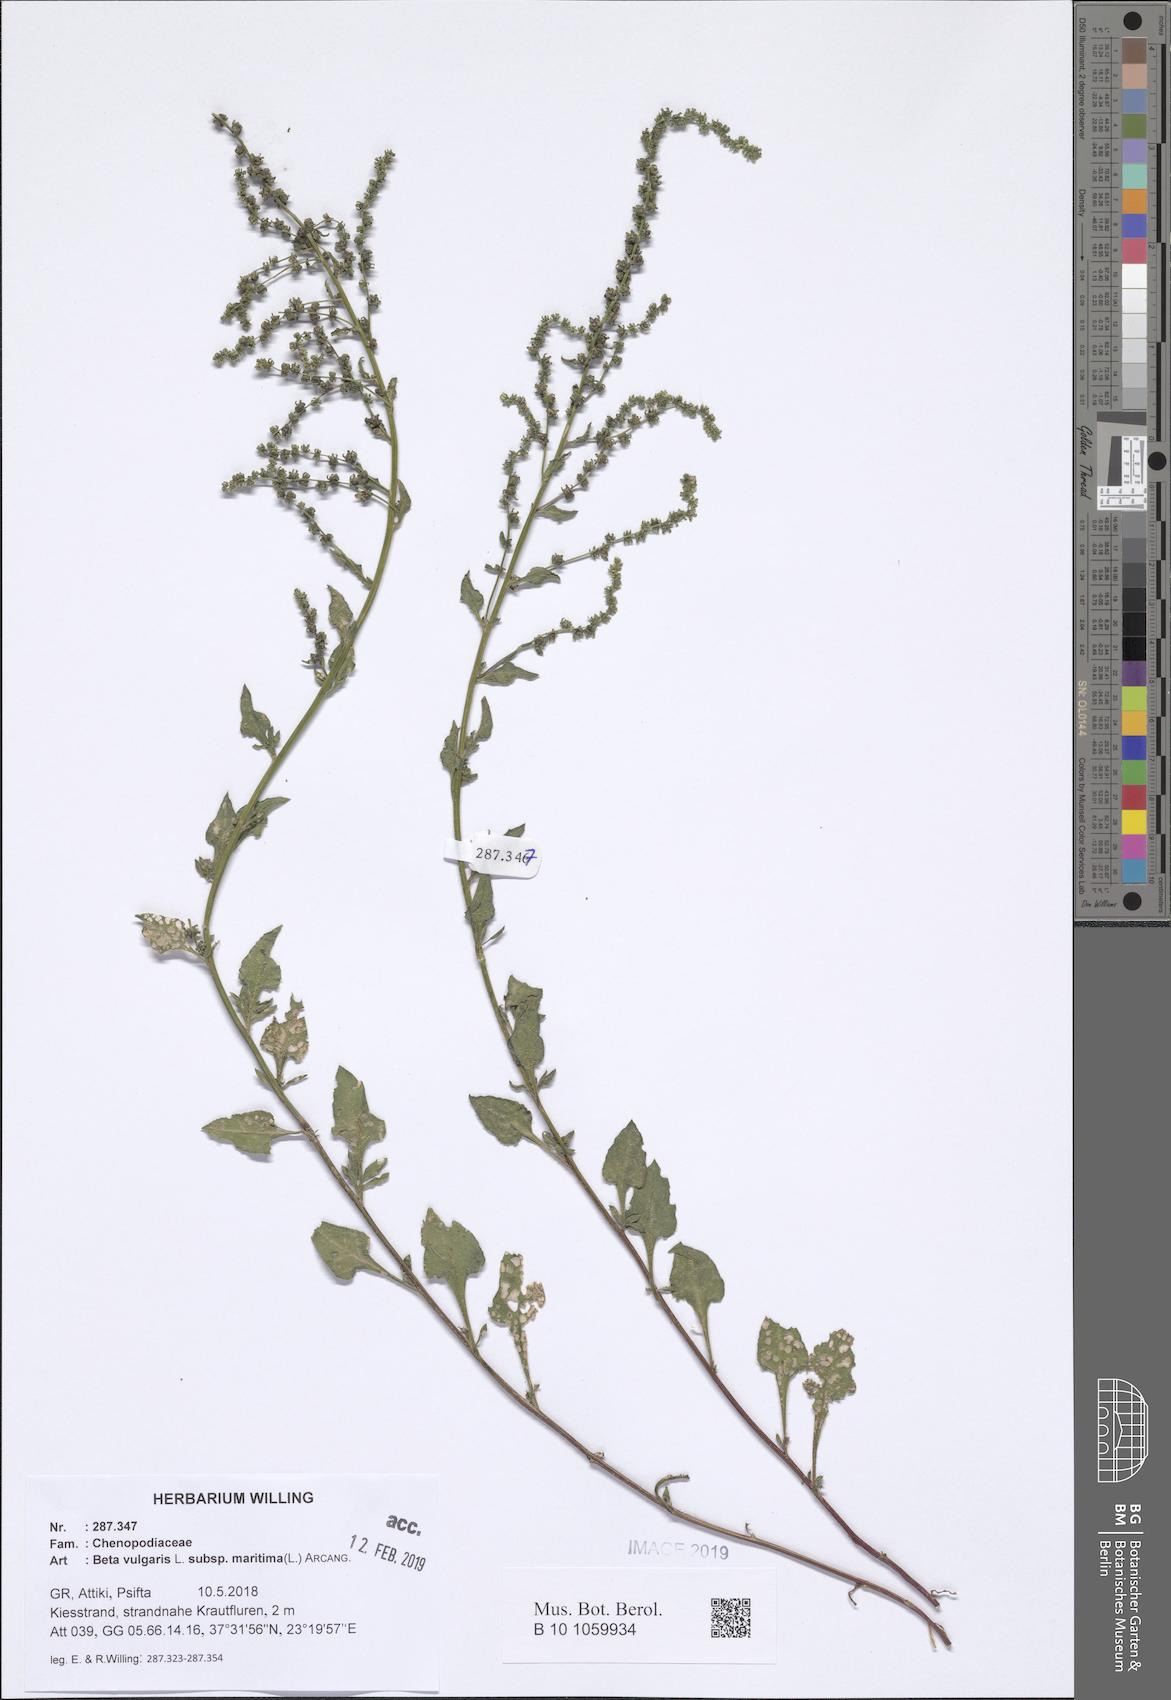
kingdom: Plantae
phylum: Tracheophyta
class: Magnoliopsida
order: Caryophyllales
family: Amaranthaceae
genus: Beta
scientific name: Beta maritima
